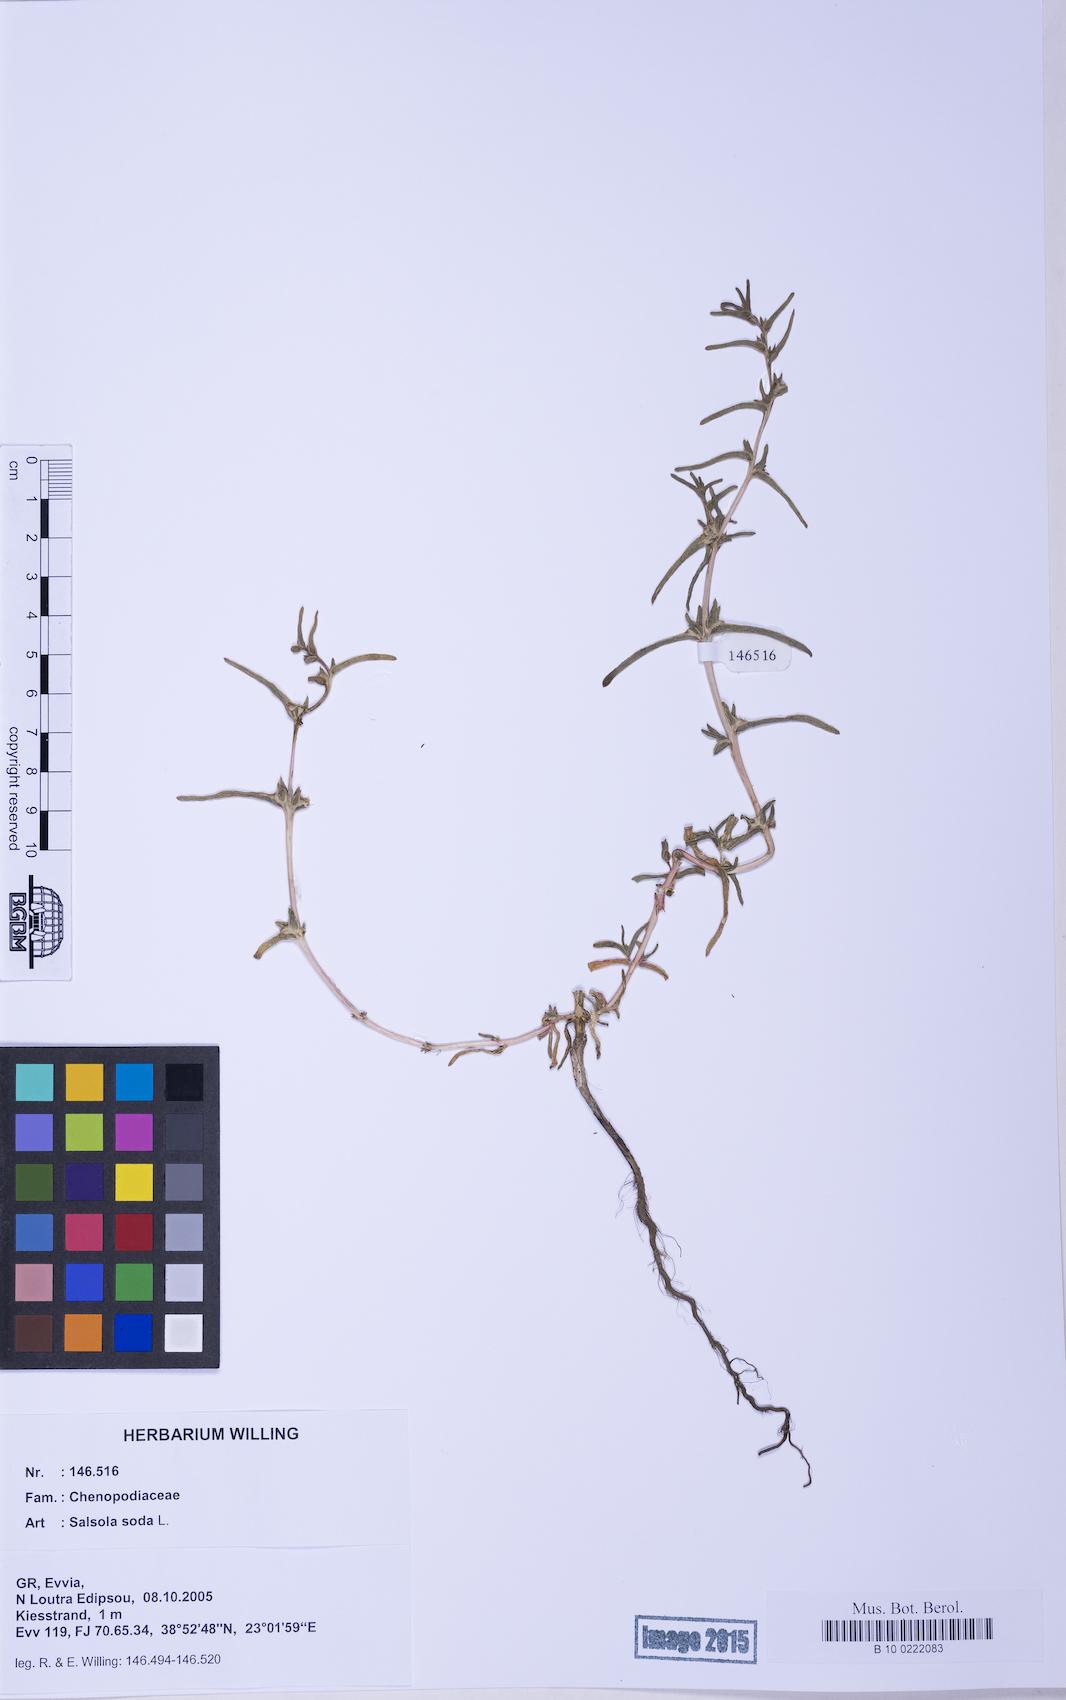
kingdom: Plantae
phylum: Tracheophyta
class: Magnoliopsida
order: Caryophyllales
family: Amaranthaceae
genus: Soda
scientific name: Soda inermis
